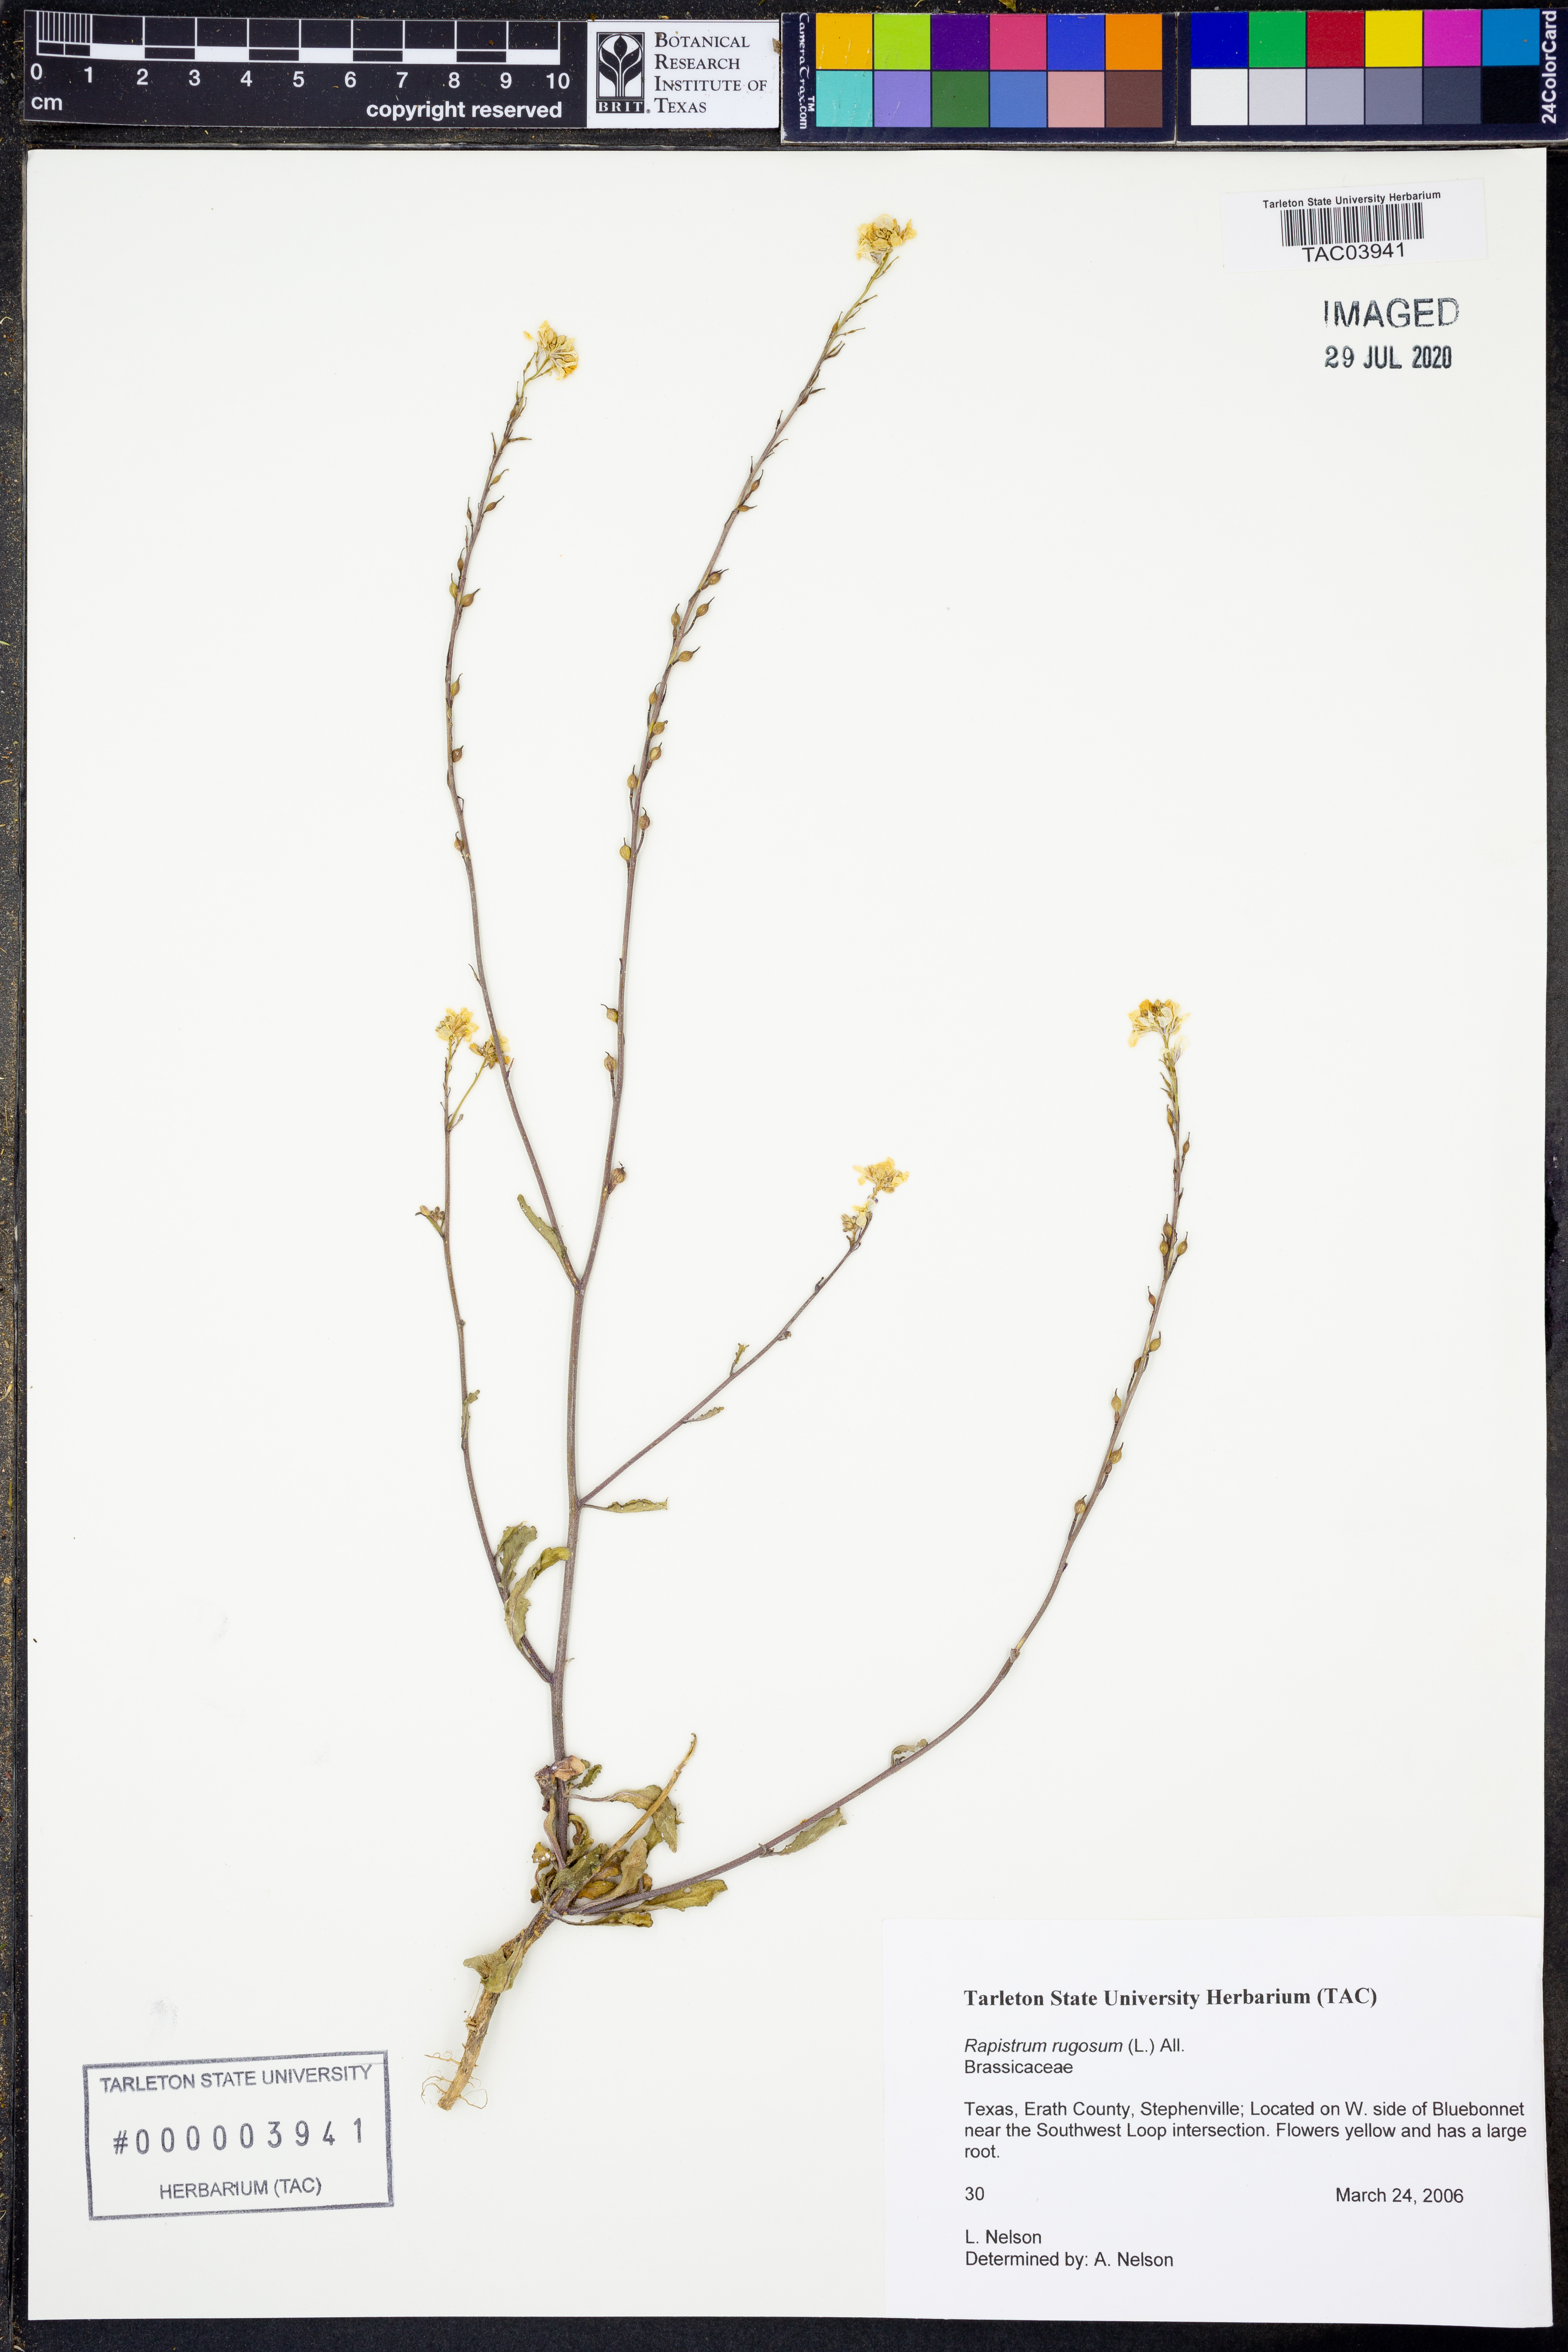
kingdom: Plantae
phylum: Tracheophyta
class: Magnoliopsida
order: Brassicales
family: Brassicaceae
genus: Rapistrum
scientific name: Rapistrum rugosum
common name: Annual bastardcabbage
